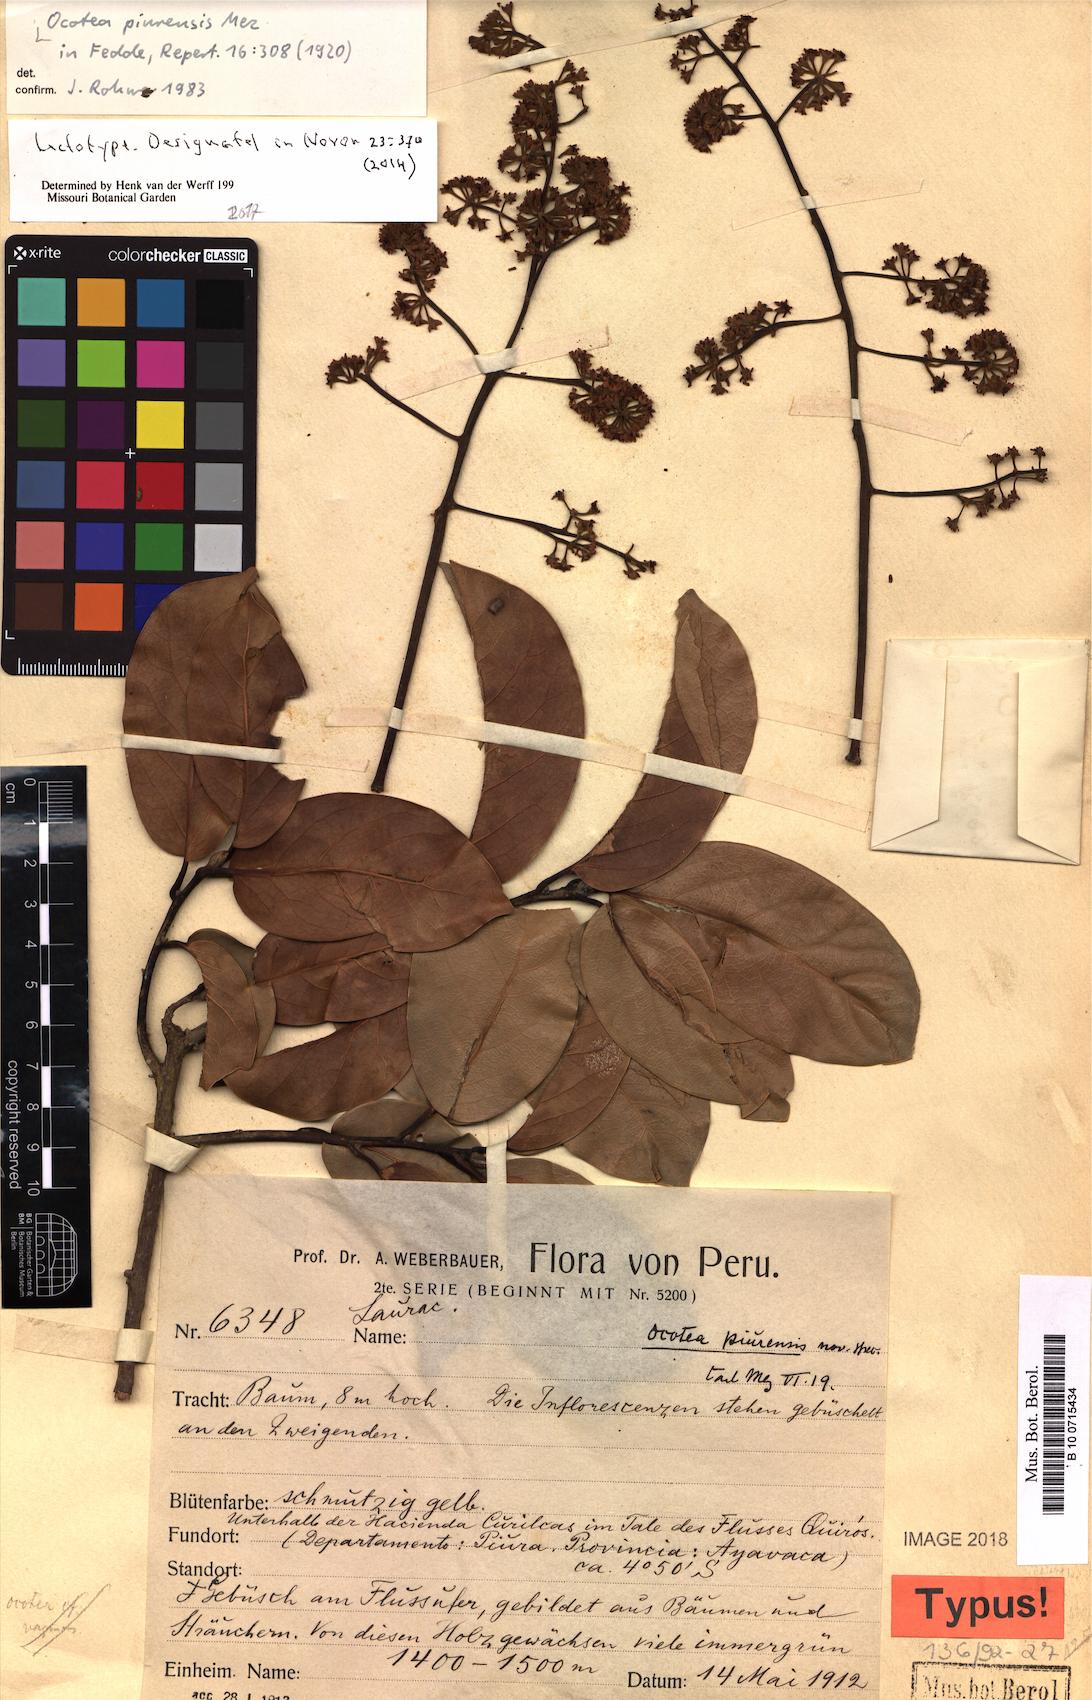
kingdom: Plantae
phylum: Tracheophyta
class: Magnoliopsida
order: Laurales
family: Lauraceae
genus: Ocotea
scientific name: Ocotea piurensis
